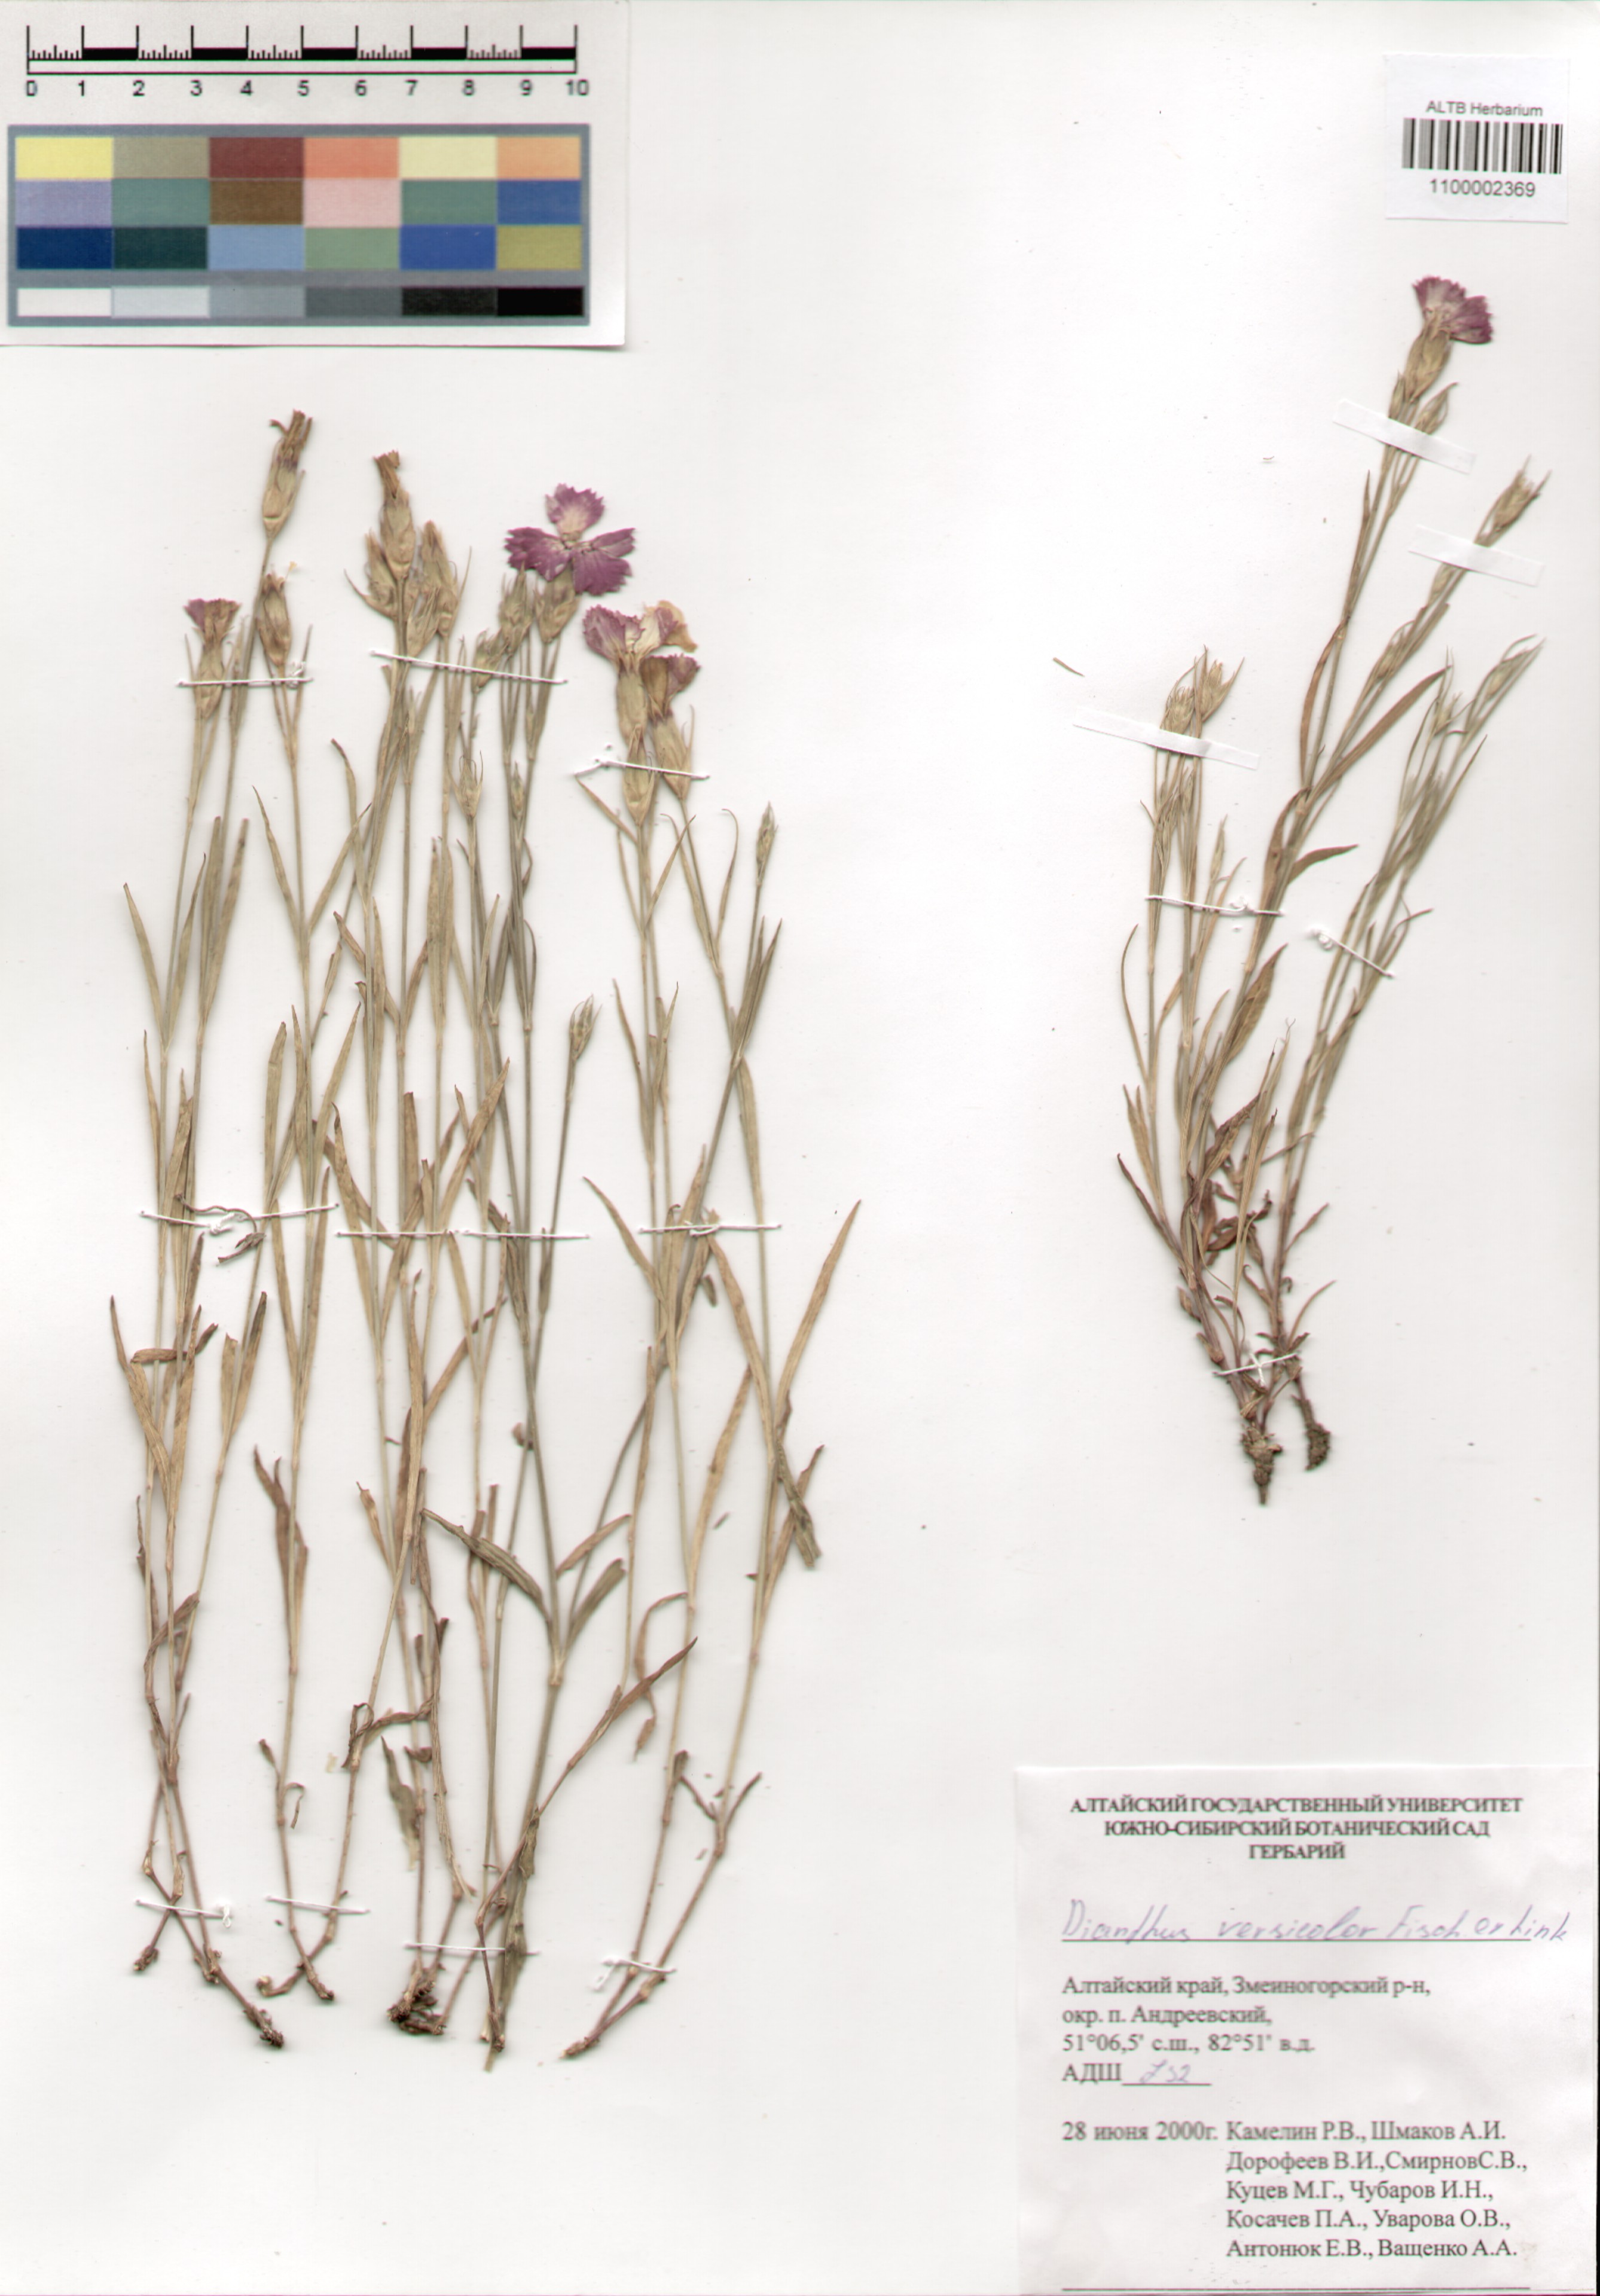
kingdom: Plantae
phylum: Tracheophyta
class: Magnoliopsida
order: Caryophyllales
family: Caryophyllaceae
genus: Dianthus
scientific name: Dianthus chinensis
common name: Rainbow pink
